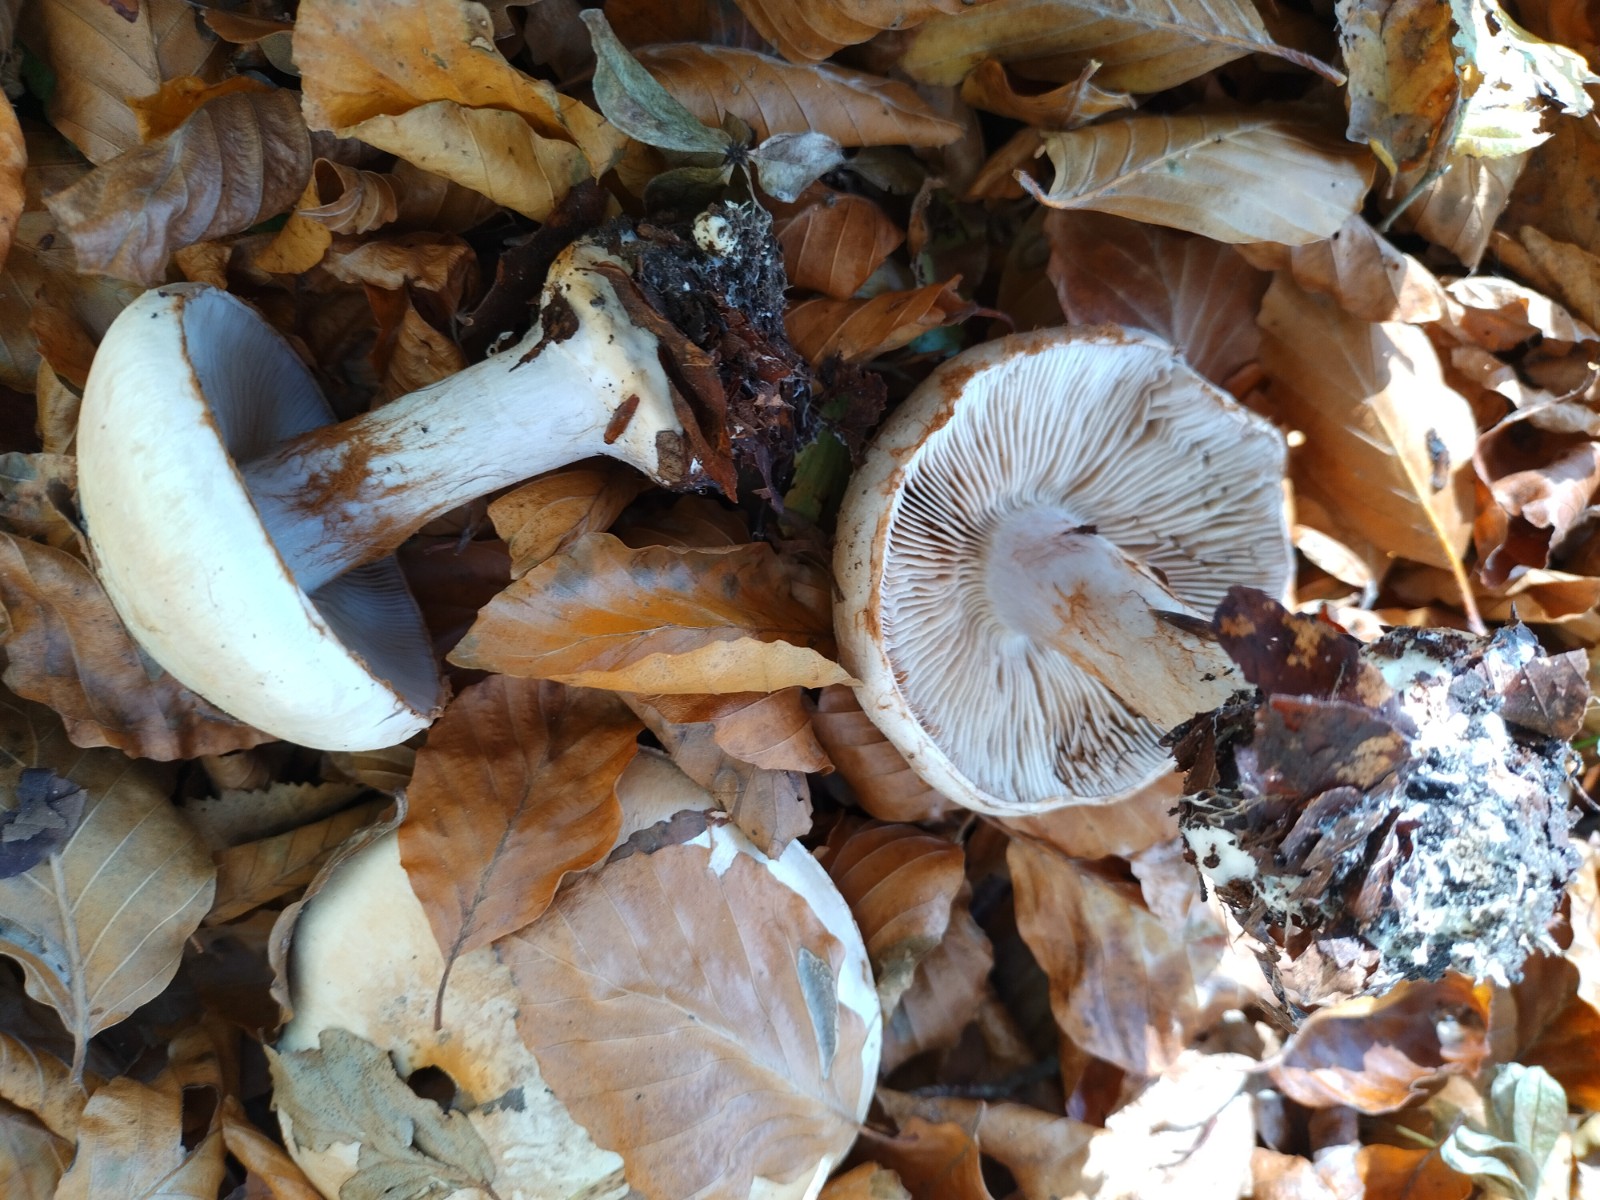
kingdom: Fungi
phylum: Basidiomycota
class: Agaricomycetes
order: Agaricales
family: Cortinariaceae
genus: Cortinarius
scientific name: Cortinarius anserinus
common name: bøge-slørhat
